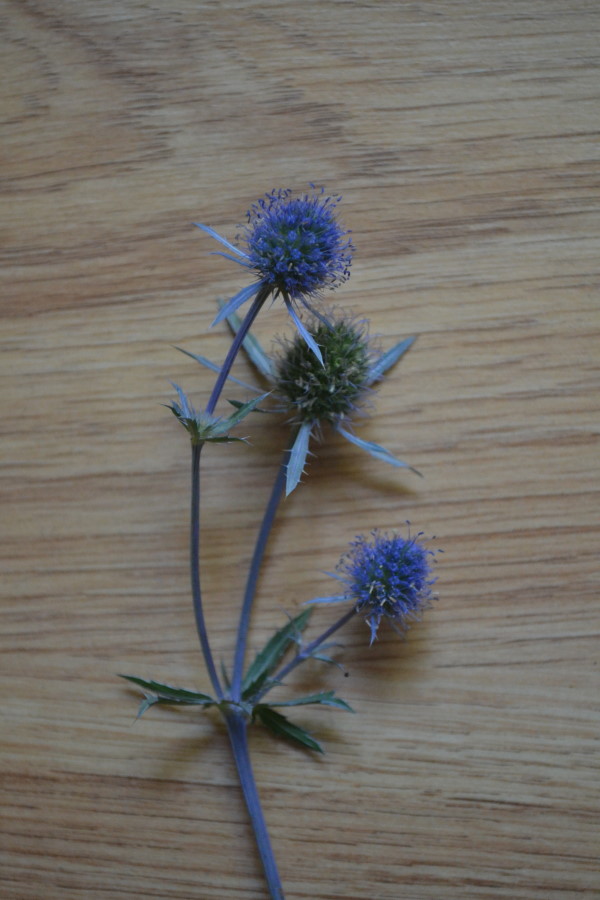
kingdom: Plantae
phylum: Tracheophyta
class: Magnoliopsida
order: Apiales
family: Apiaceae
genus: Eryngium
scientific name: Eryngium planum
